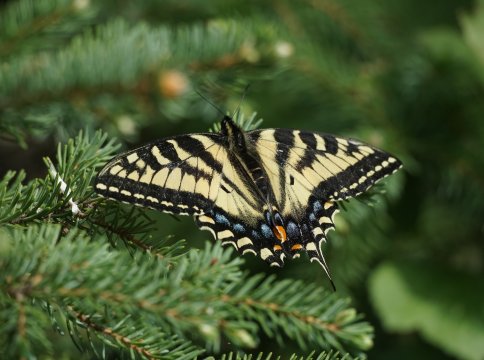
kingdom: Animalia
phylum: Arthropoda
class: Insecta
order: Lepidoptera
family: Papilionidae
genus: Pterourus
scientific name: Pterourus canadensis
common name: Canadian Tiger Swallowtail
